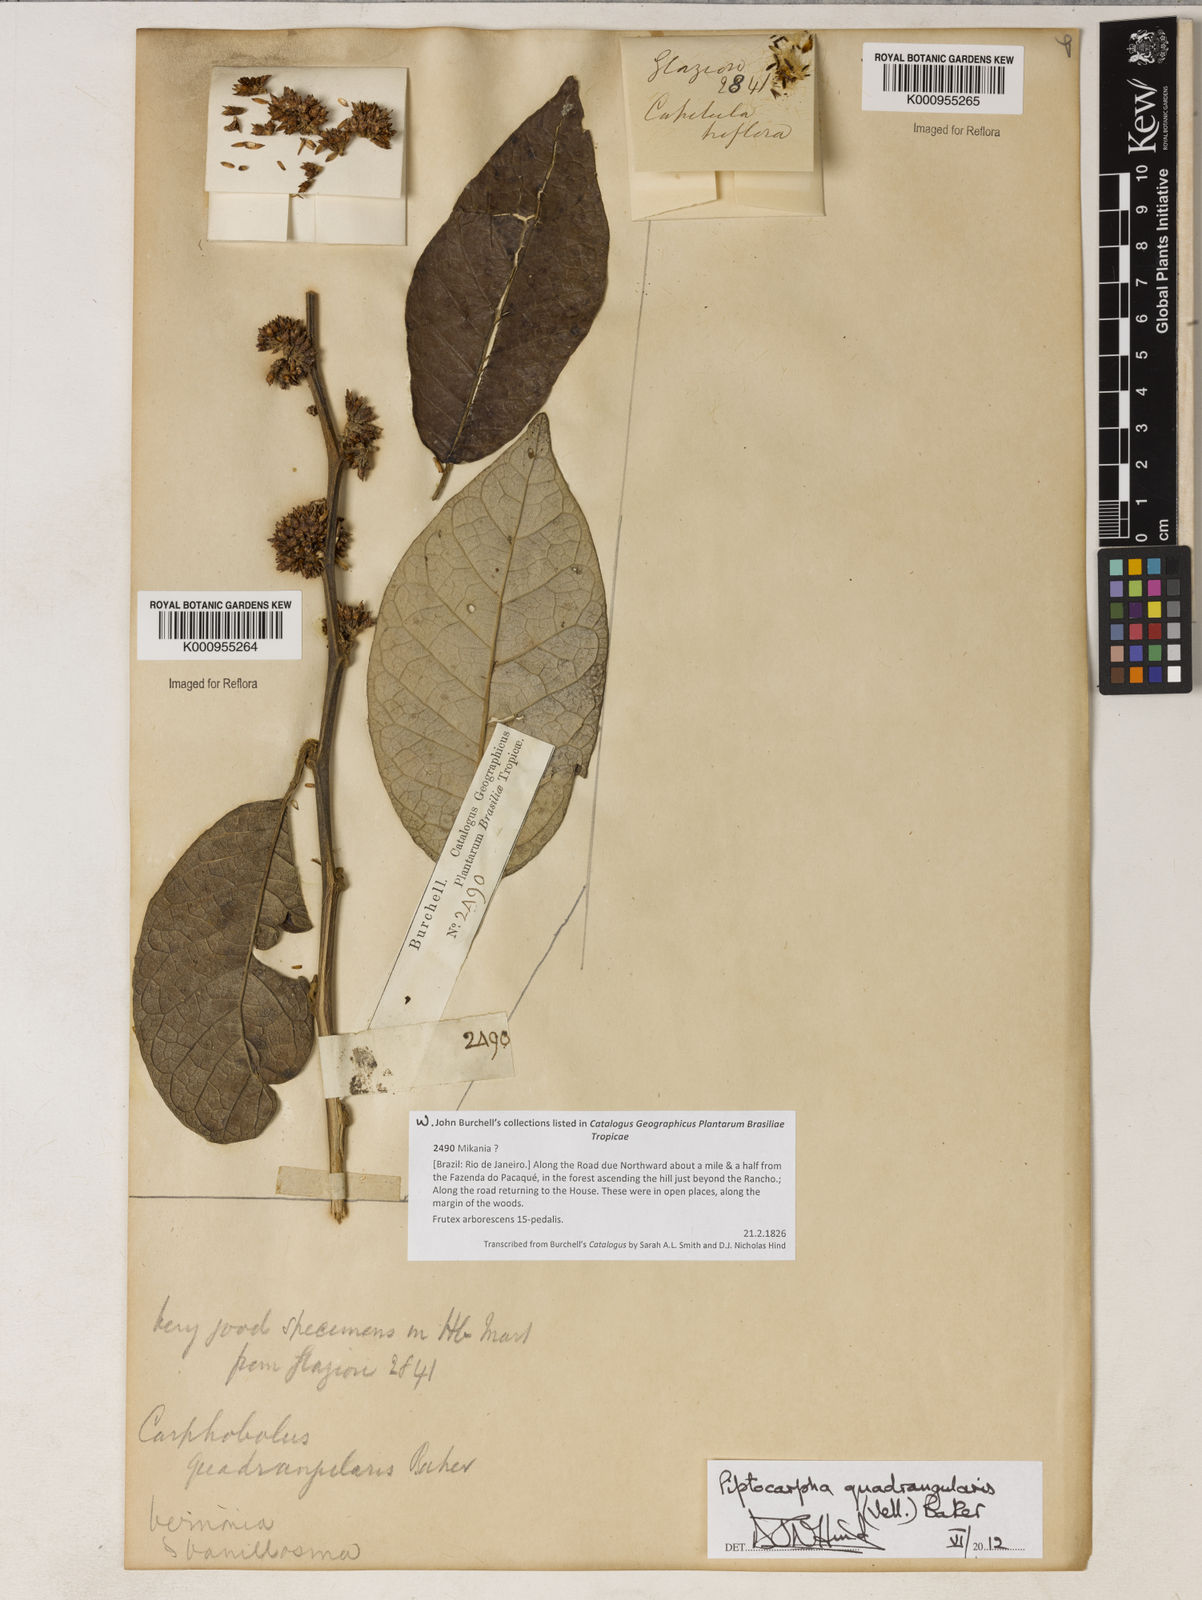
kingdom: Plantae
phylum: Tracheophyta
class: Magnoliopsida
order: Asterales
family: Asteraceae
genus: Piptocarpha
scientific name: Piptocarpha quadrangularis
